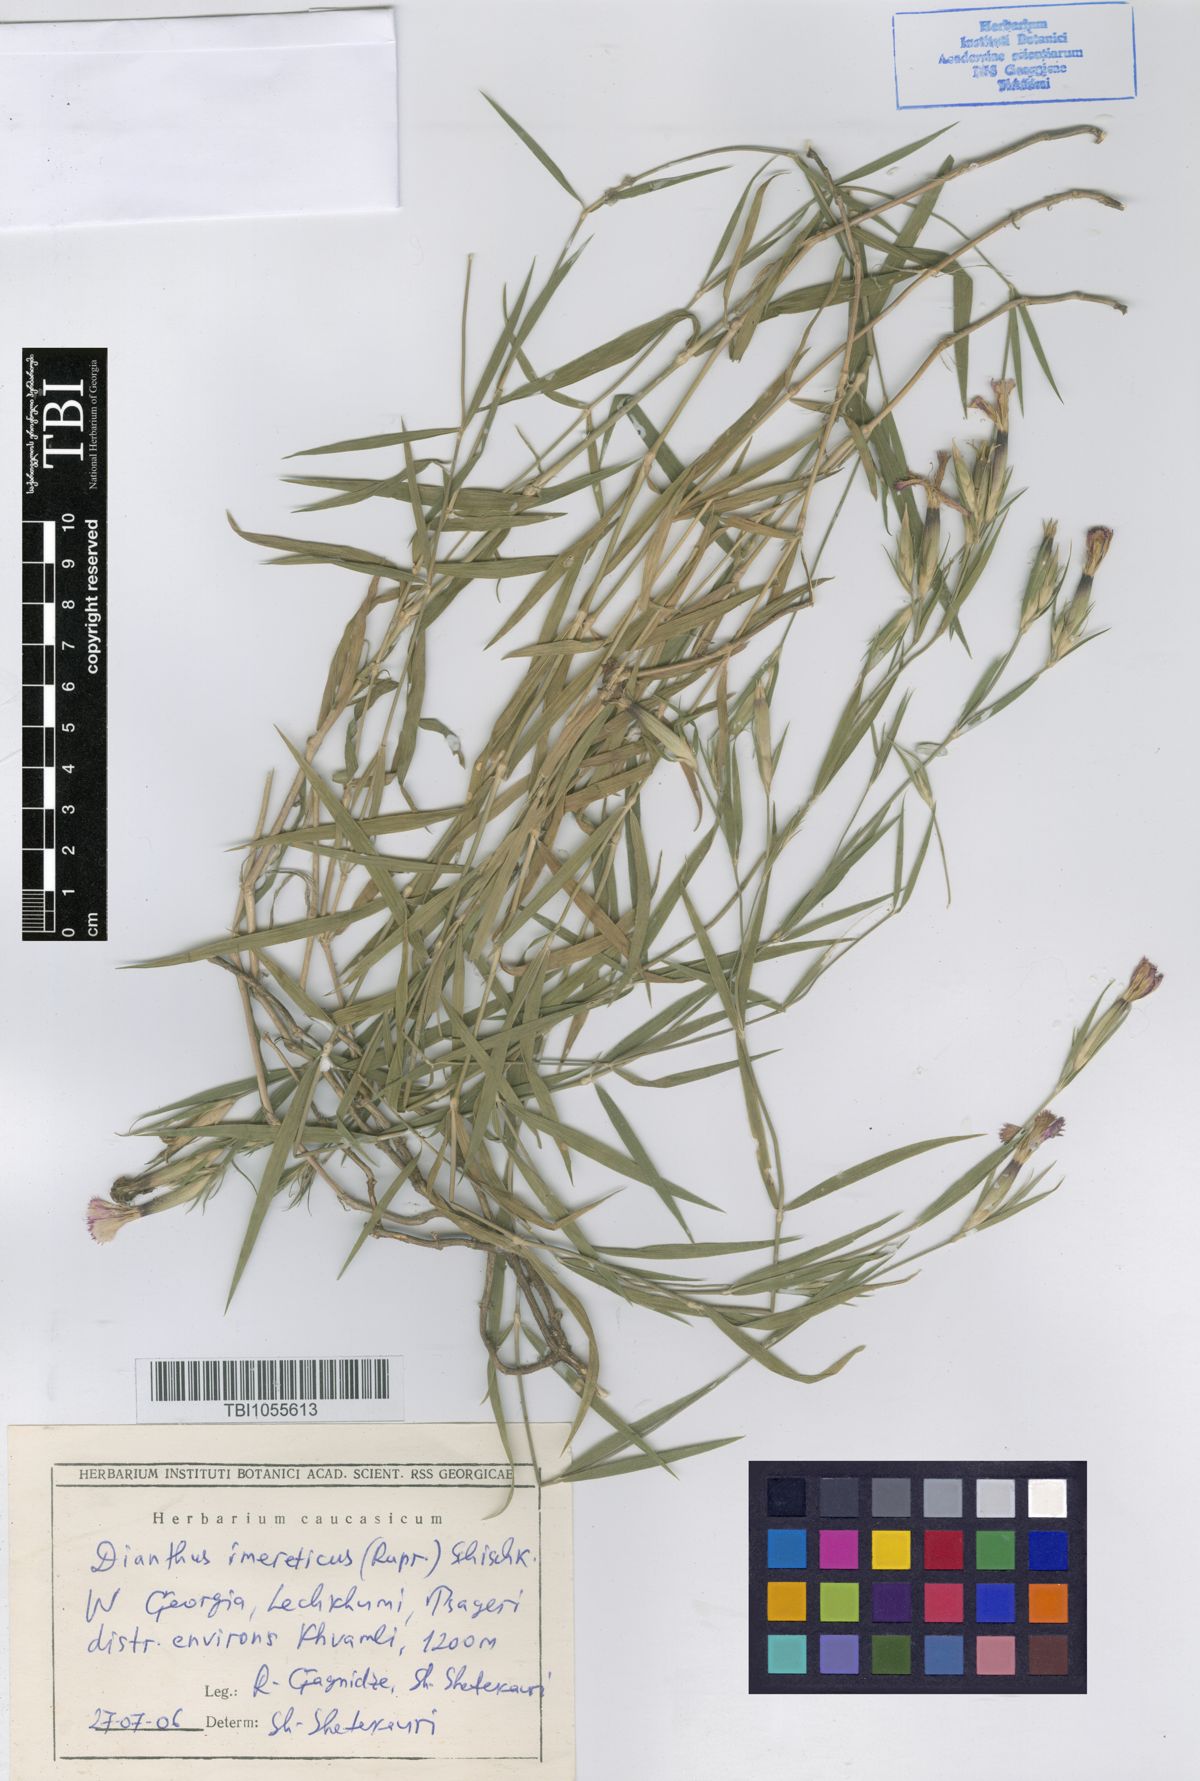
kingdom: Plantae
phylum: Tracheophyta
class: Magnoliopsida
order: Caryophyllales
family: Caryophyllaceae
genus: Dianthus
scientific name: Dianthus imereticus
